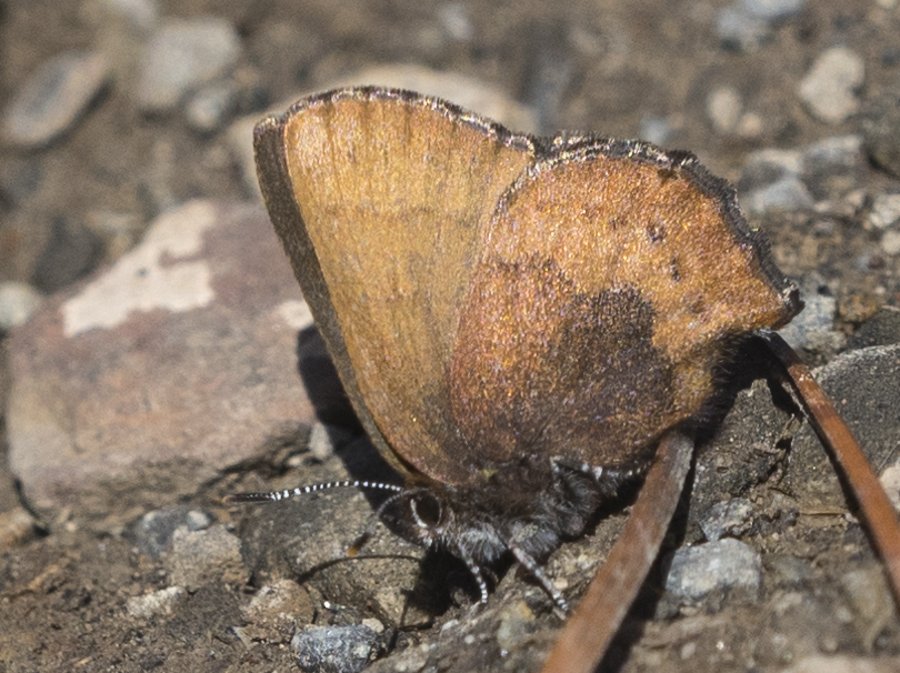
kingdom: Animalia
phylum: Arthropoda
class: Insecta
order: Lepidoptera
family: Lycaenidae
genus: Incisalia
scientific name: Incisalia irioides
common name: Brown Elfin
